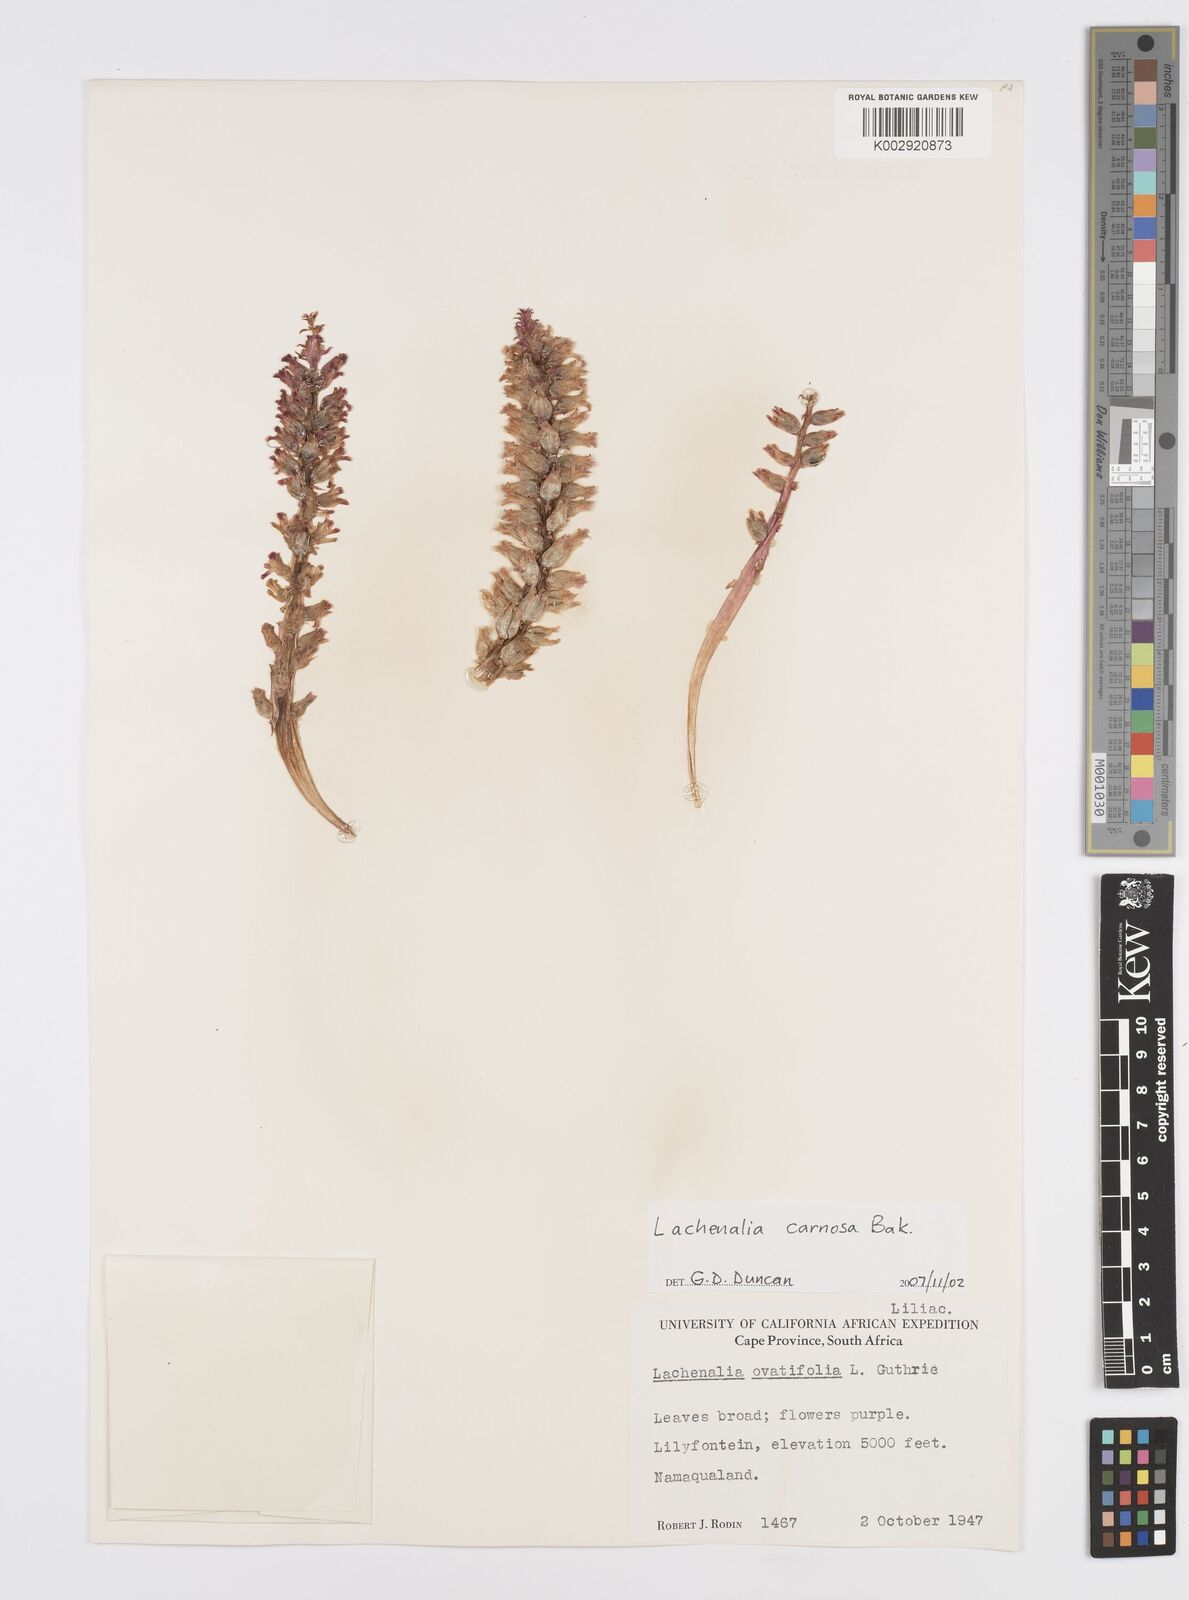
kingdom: Plantae
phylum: Tracheophyta
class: Liliopsida
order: Asparagales
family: Asparagaceae
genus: Lachenalia
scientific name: Lachenalia carnosa
